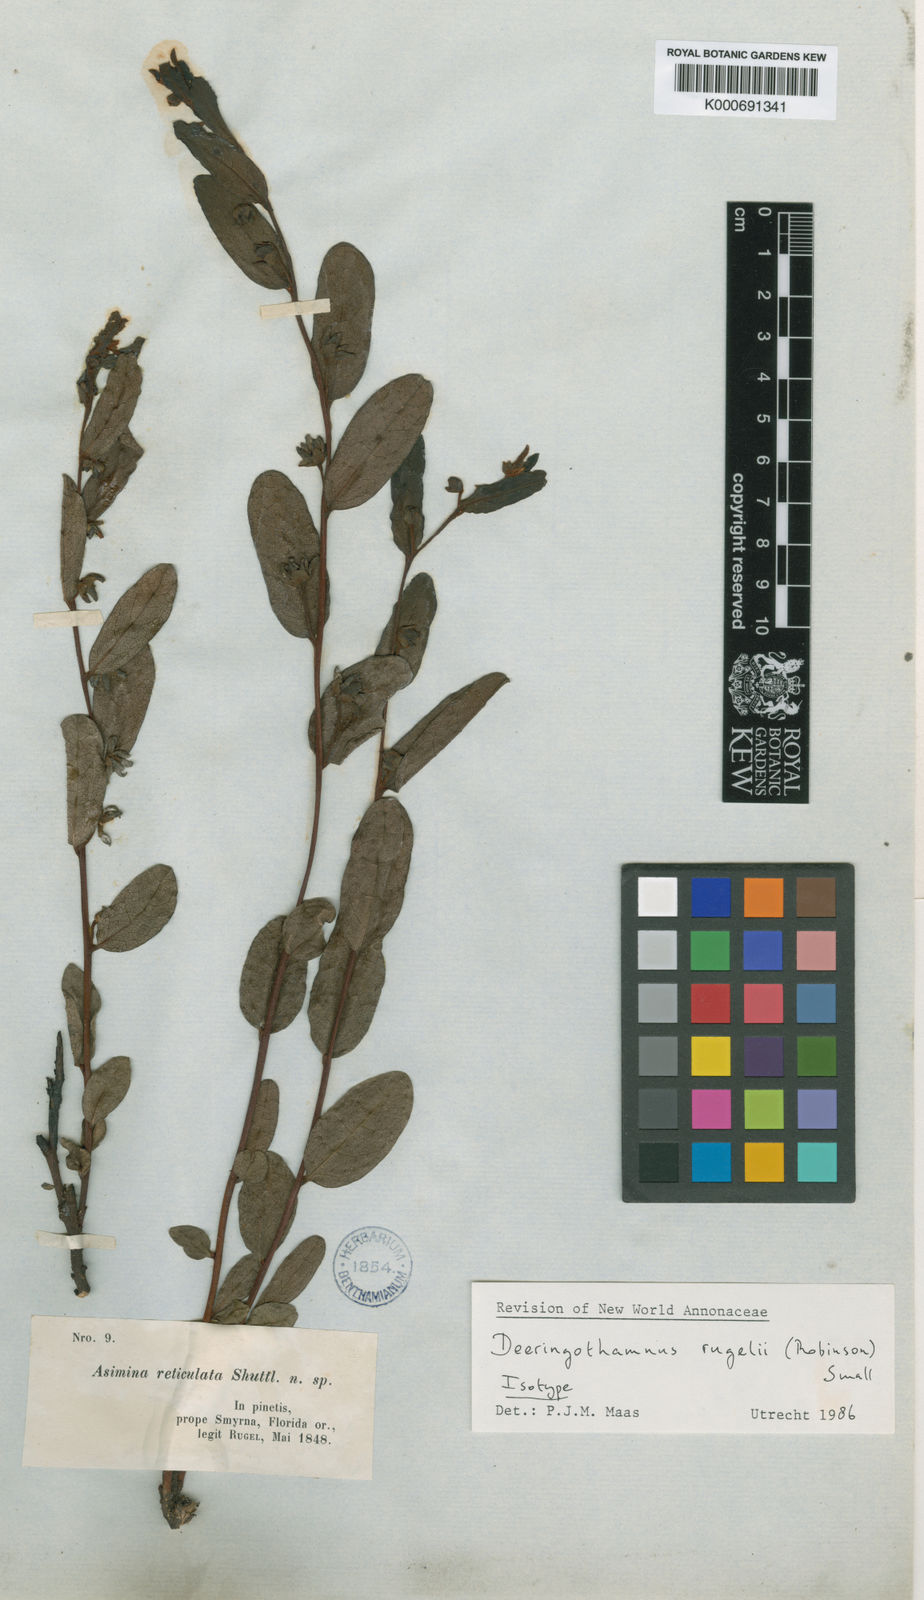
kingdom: Plantae
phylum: Tracheophyta
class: Magnoliopsida
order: Magnoliales
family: Annonaceae
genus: Deeringothamnus
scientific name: Deeringothamnus rugelii
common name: Rugel's pawpaw
